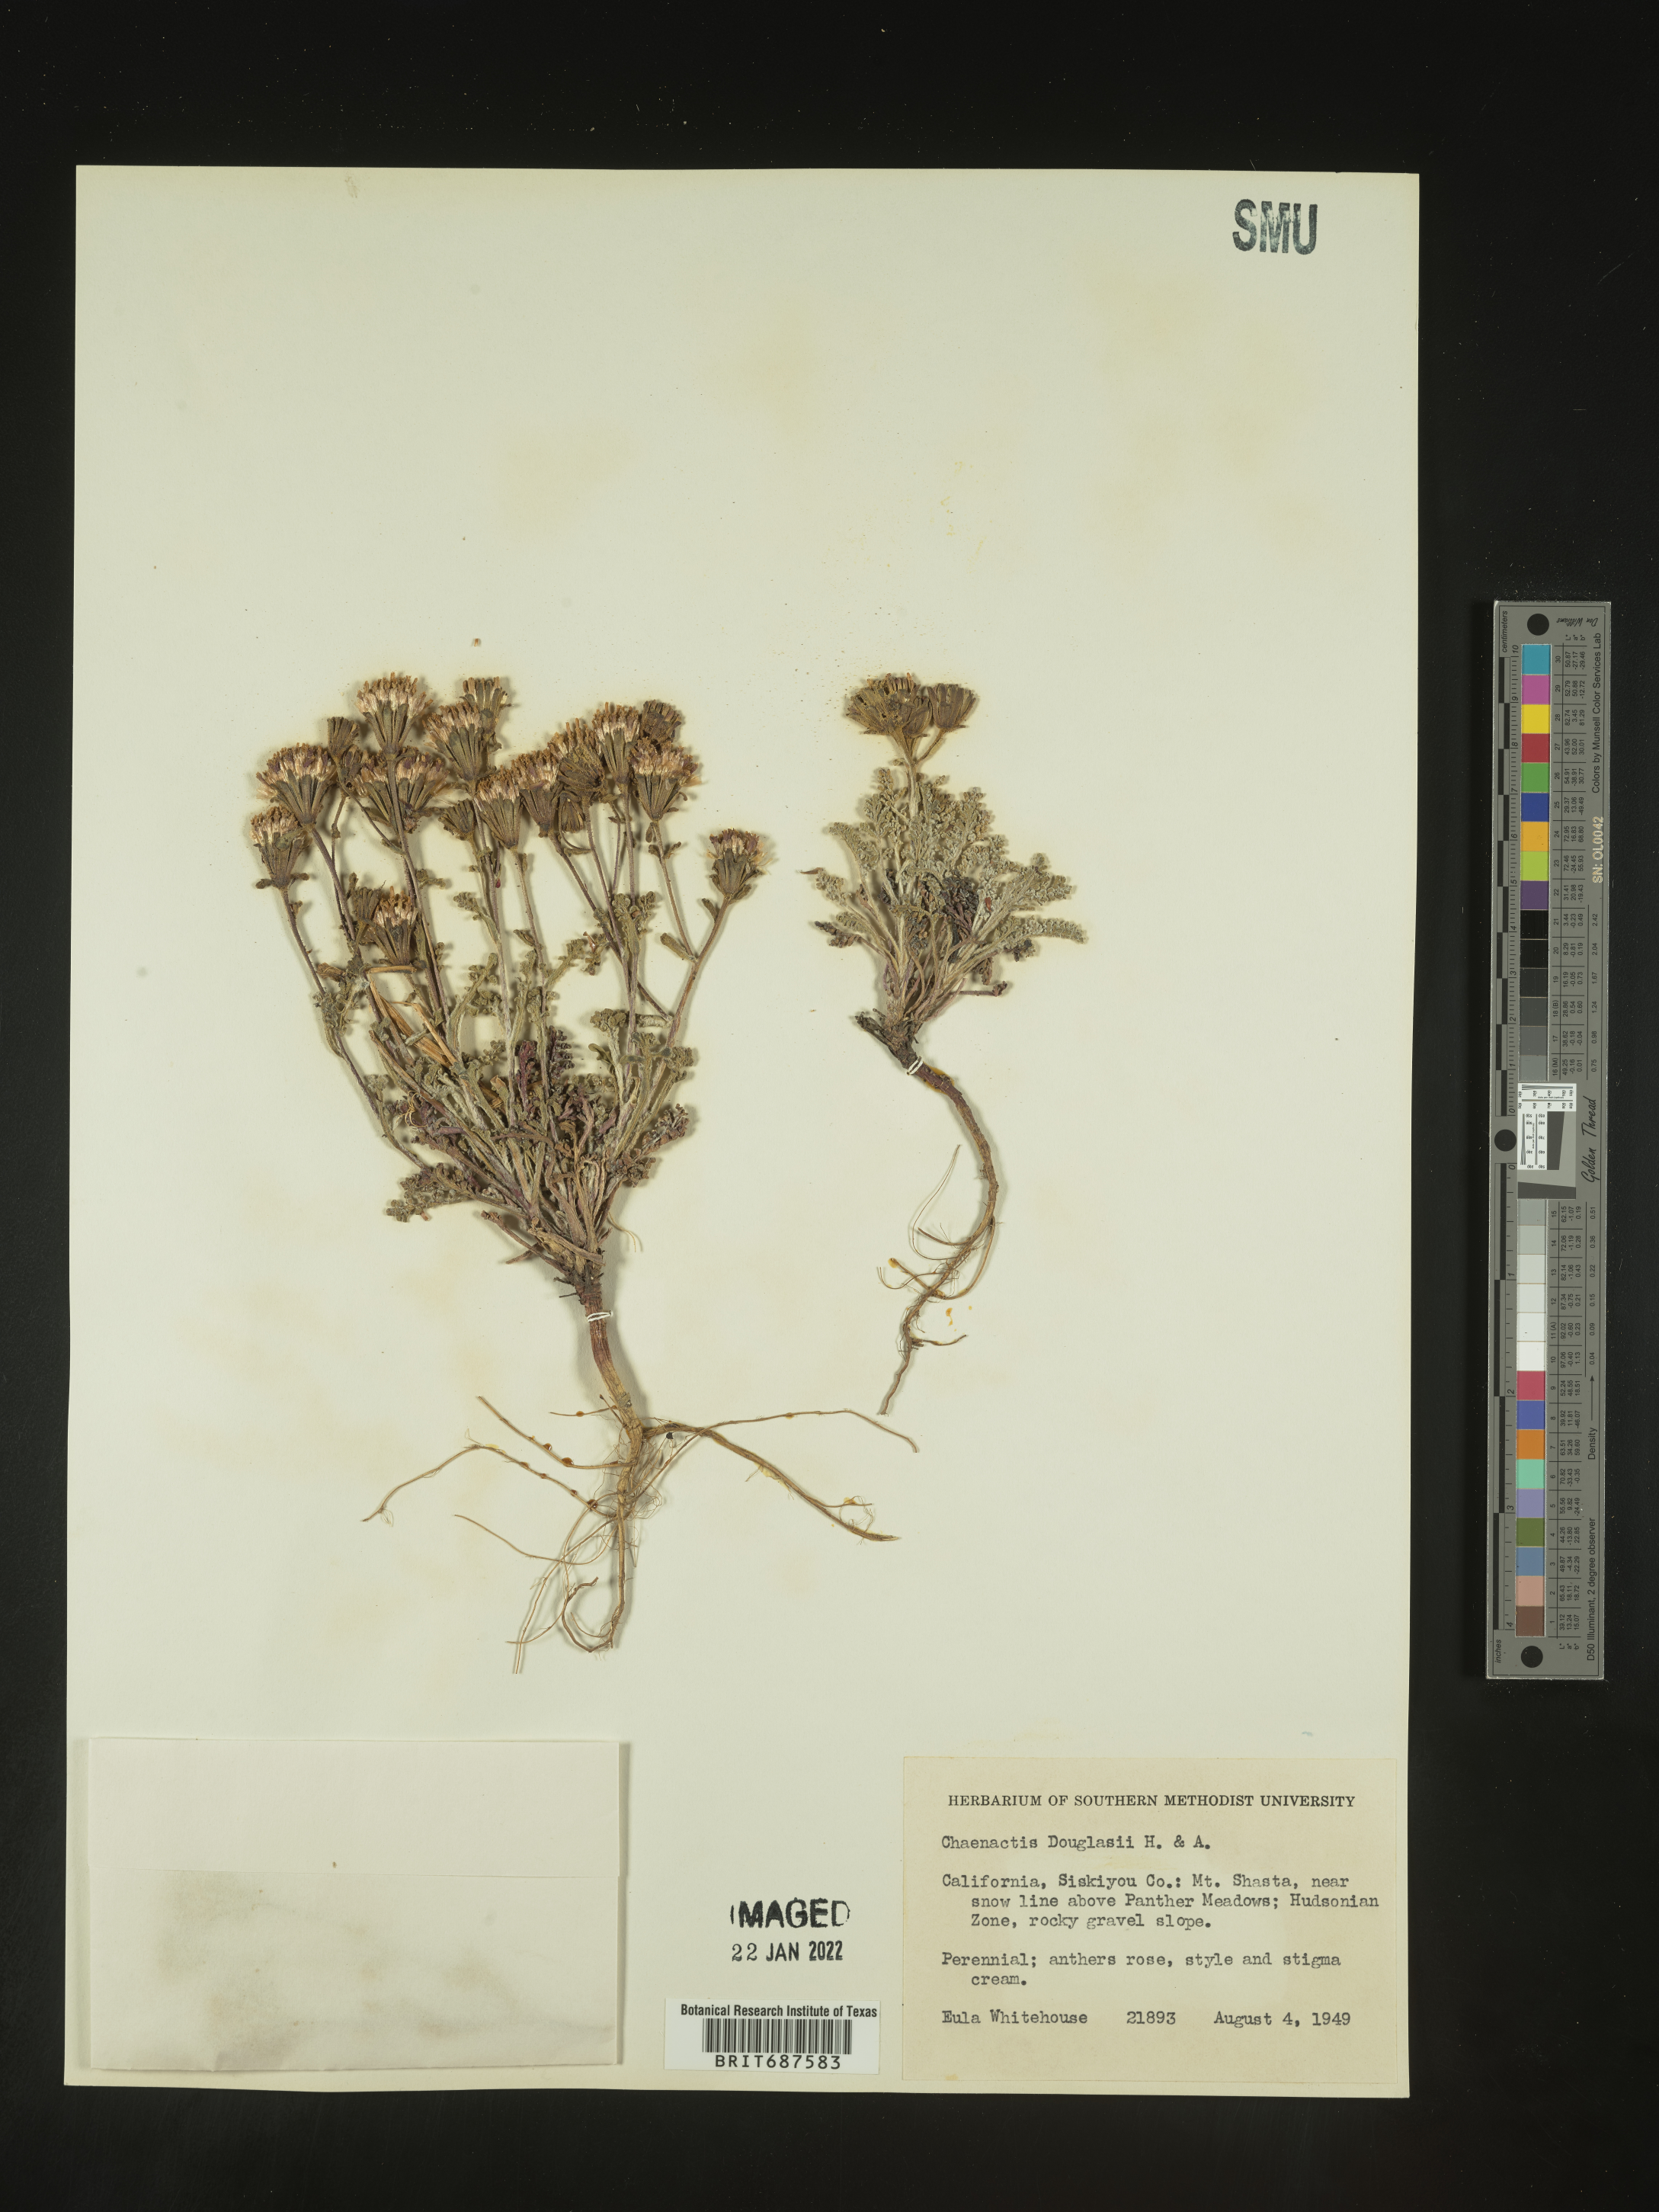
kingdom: Plantae
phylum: Tracheophyta
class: Magnoliopsida
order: Asterales
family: Asteraceae
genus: Chaenactis
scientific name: Chaenactis douglasii
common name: Hoary pincushion
